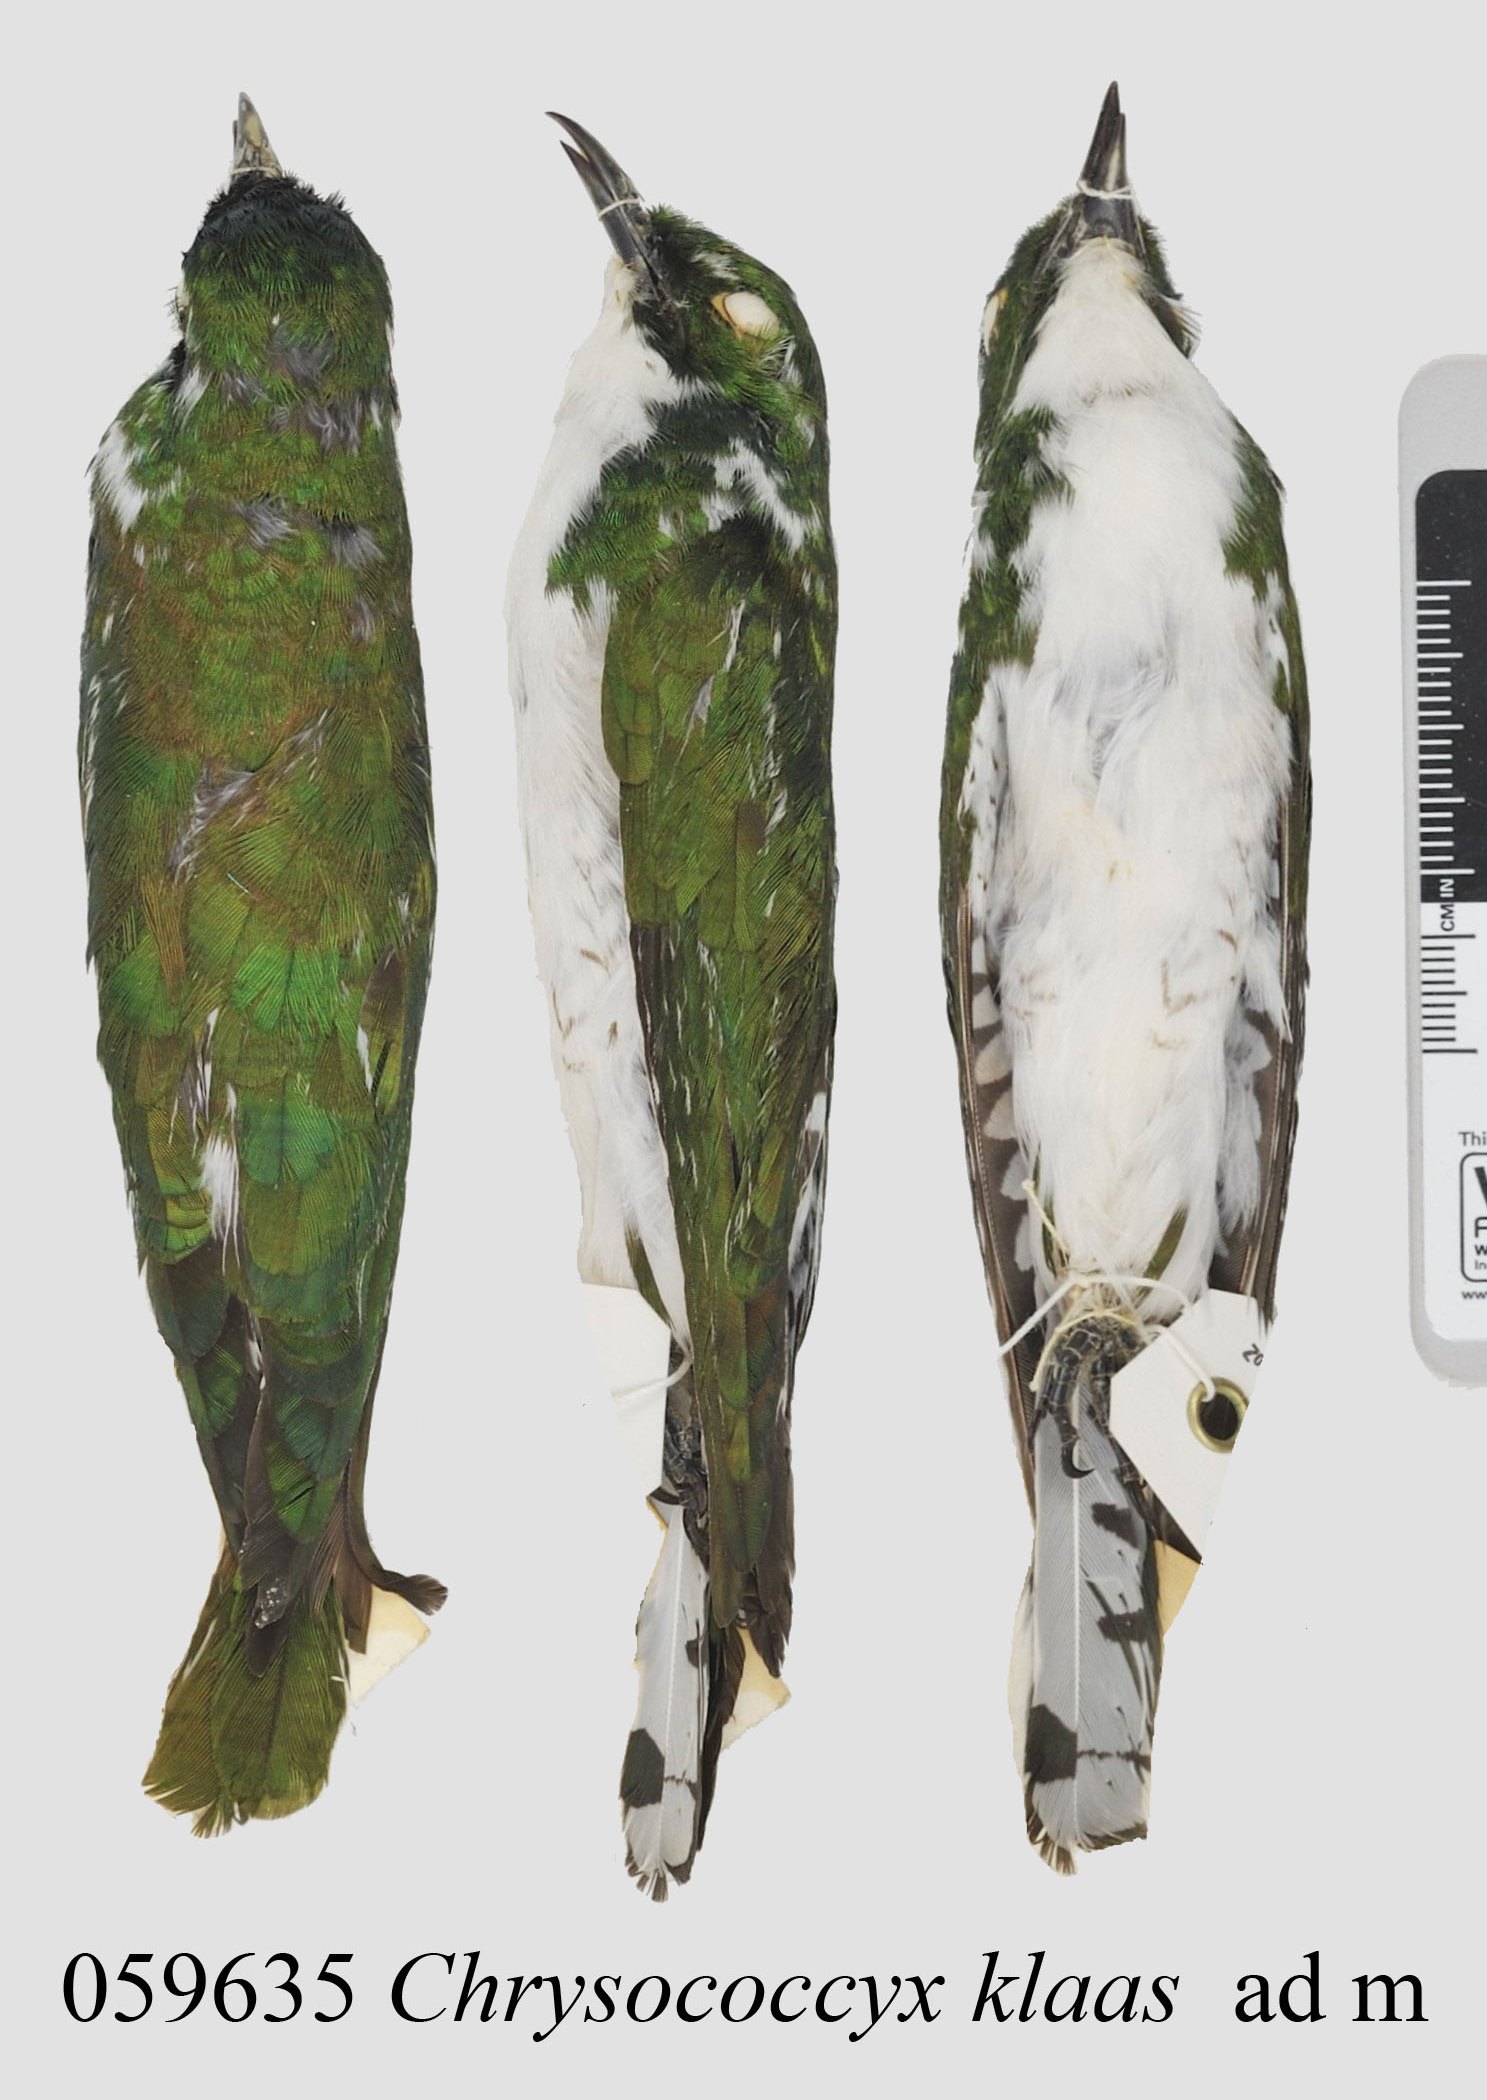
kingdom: Animalia
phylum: Chordata
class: Aves
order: Cuculiformes
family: Cuculidae
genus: Chrysococcyx
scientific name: Chrysococcyx klaas
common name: Klaas's cuckoo
